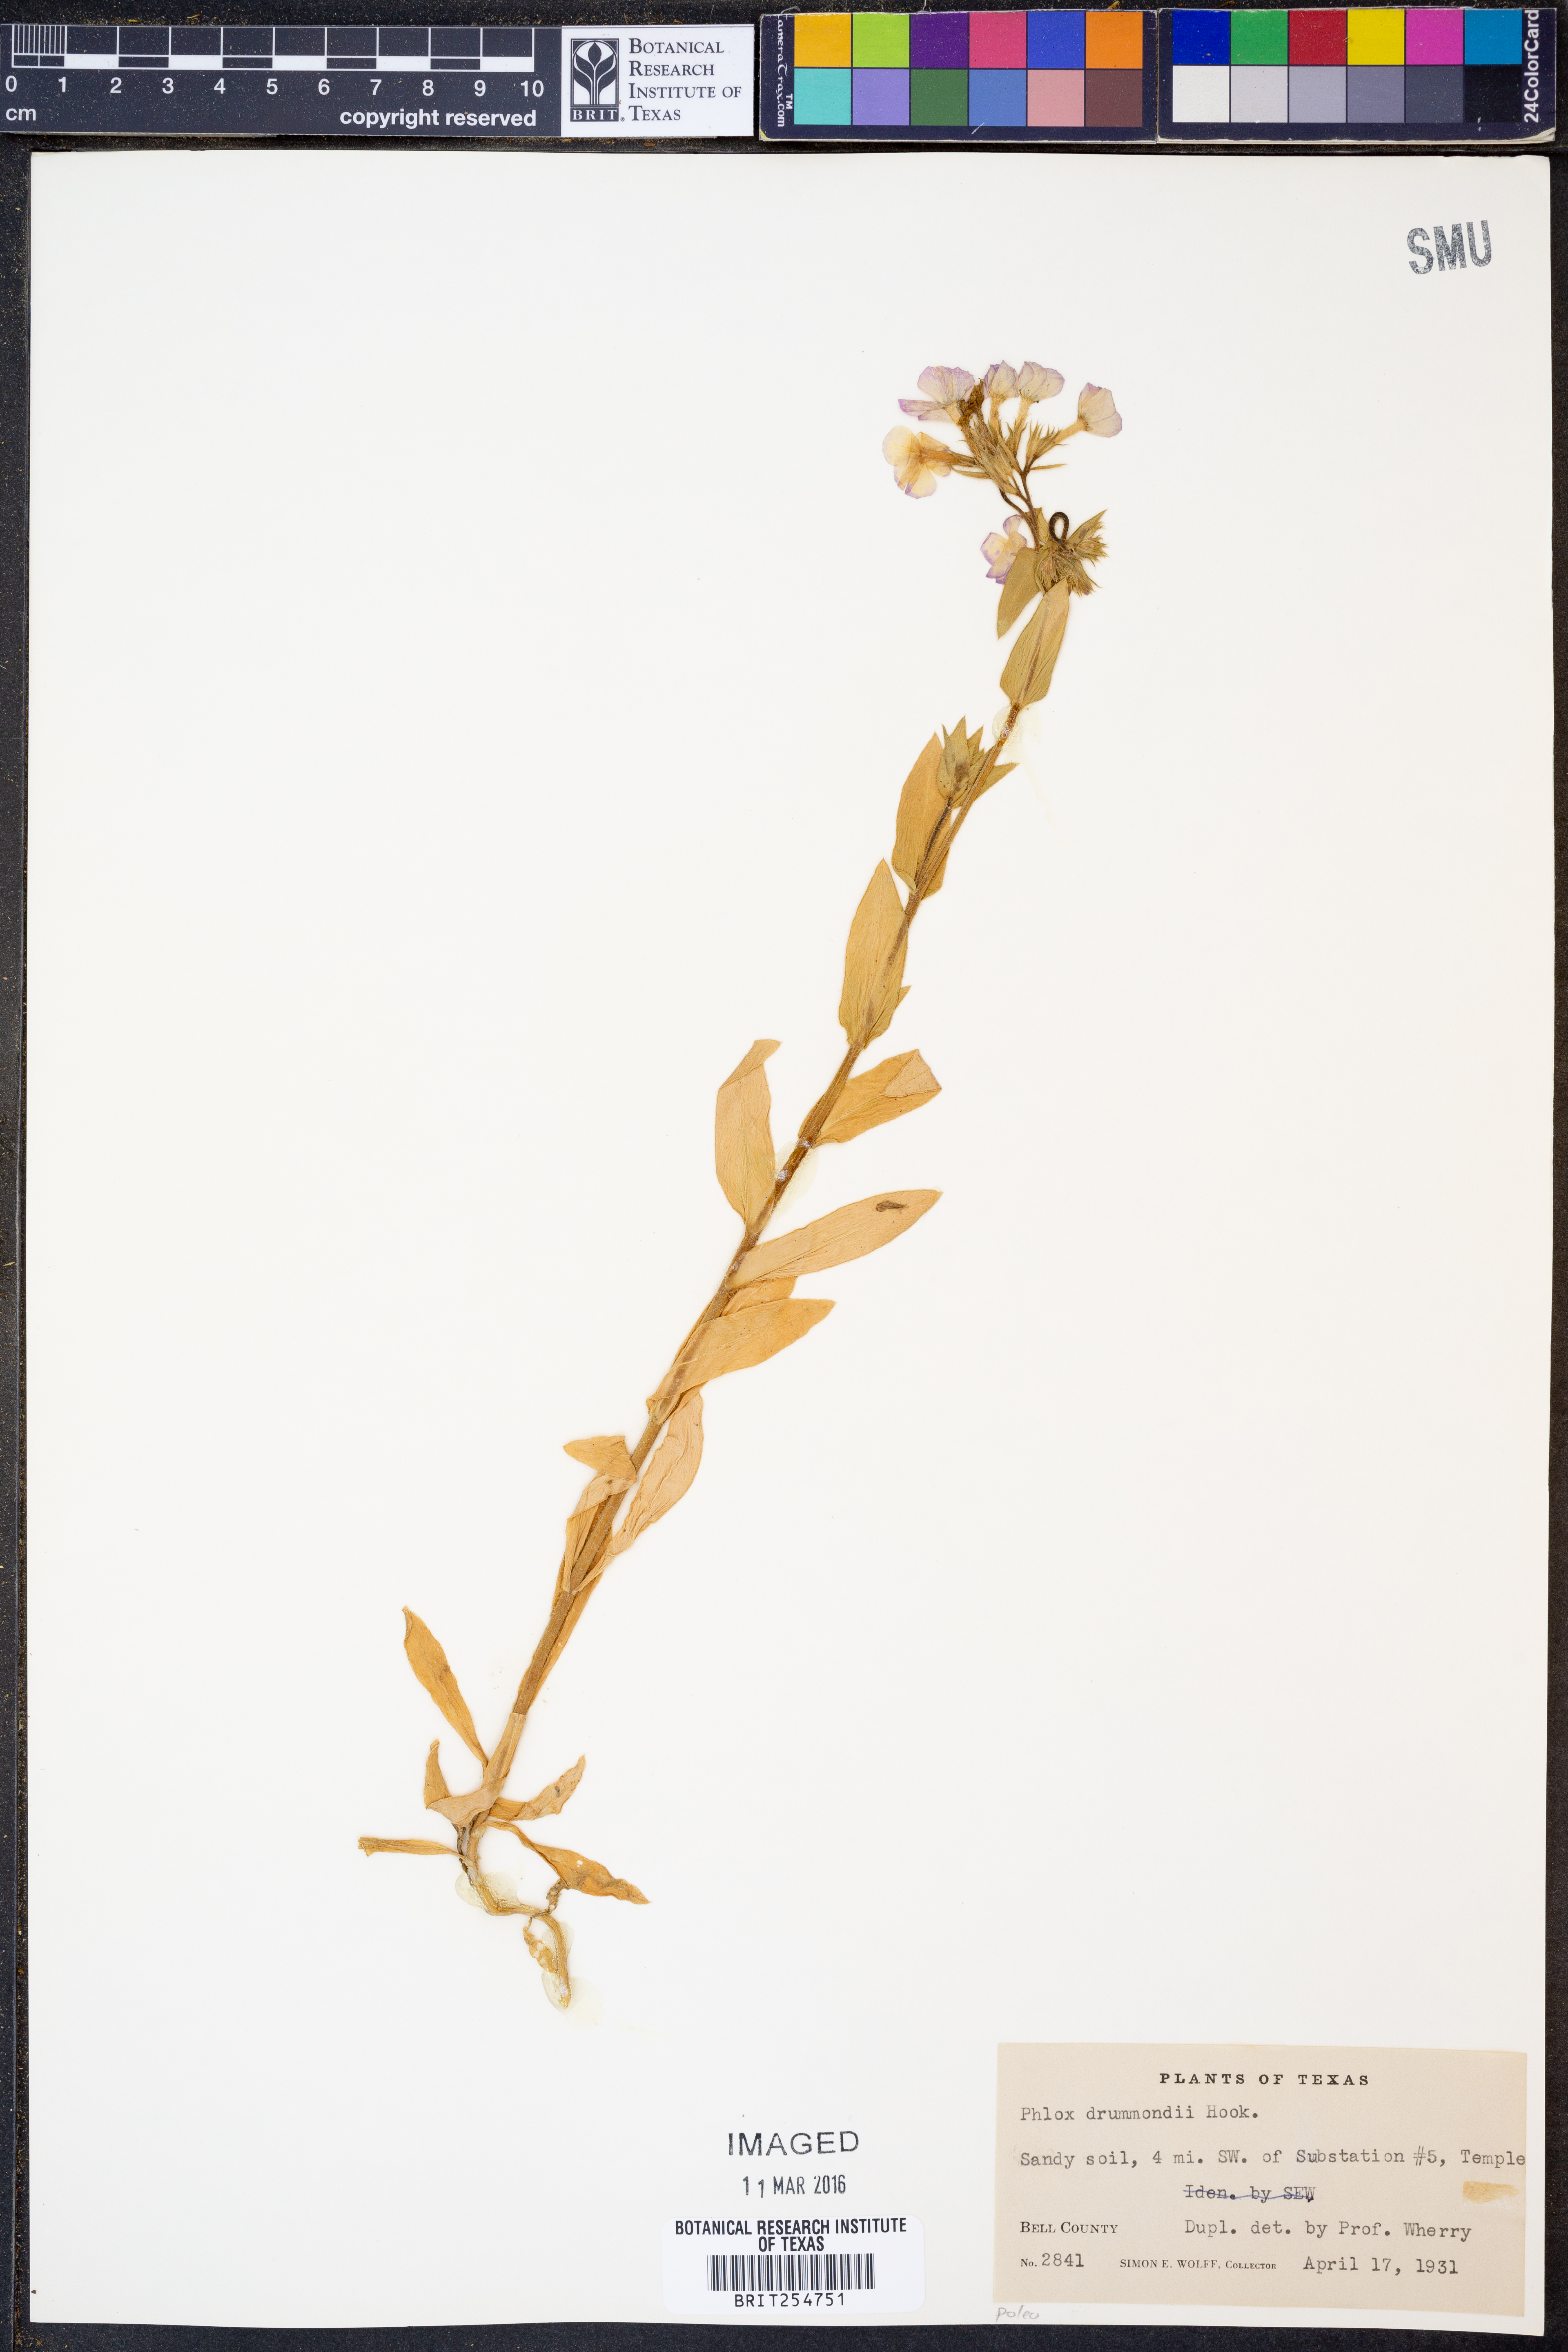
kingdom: Plantae
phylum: Tracheophyta
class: Magnoliopsida
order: Ericales
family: Polemoniaceae
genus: Phlox
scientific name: Phlox drummondii
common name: Drummond's phlox
